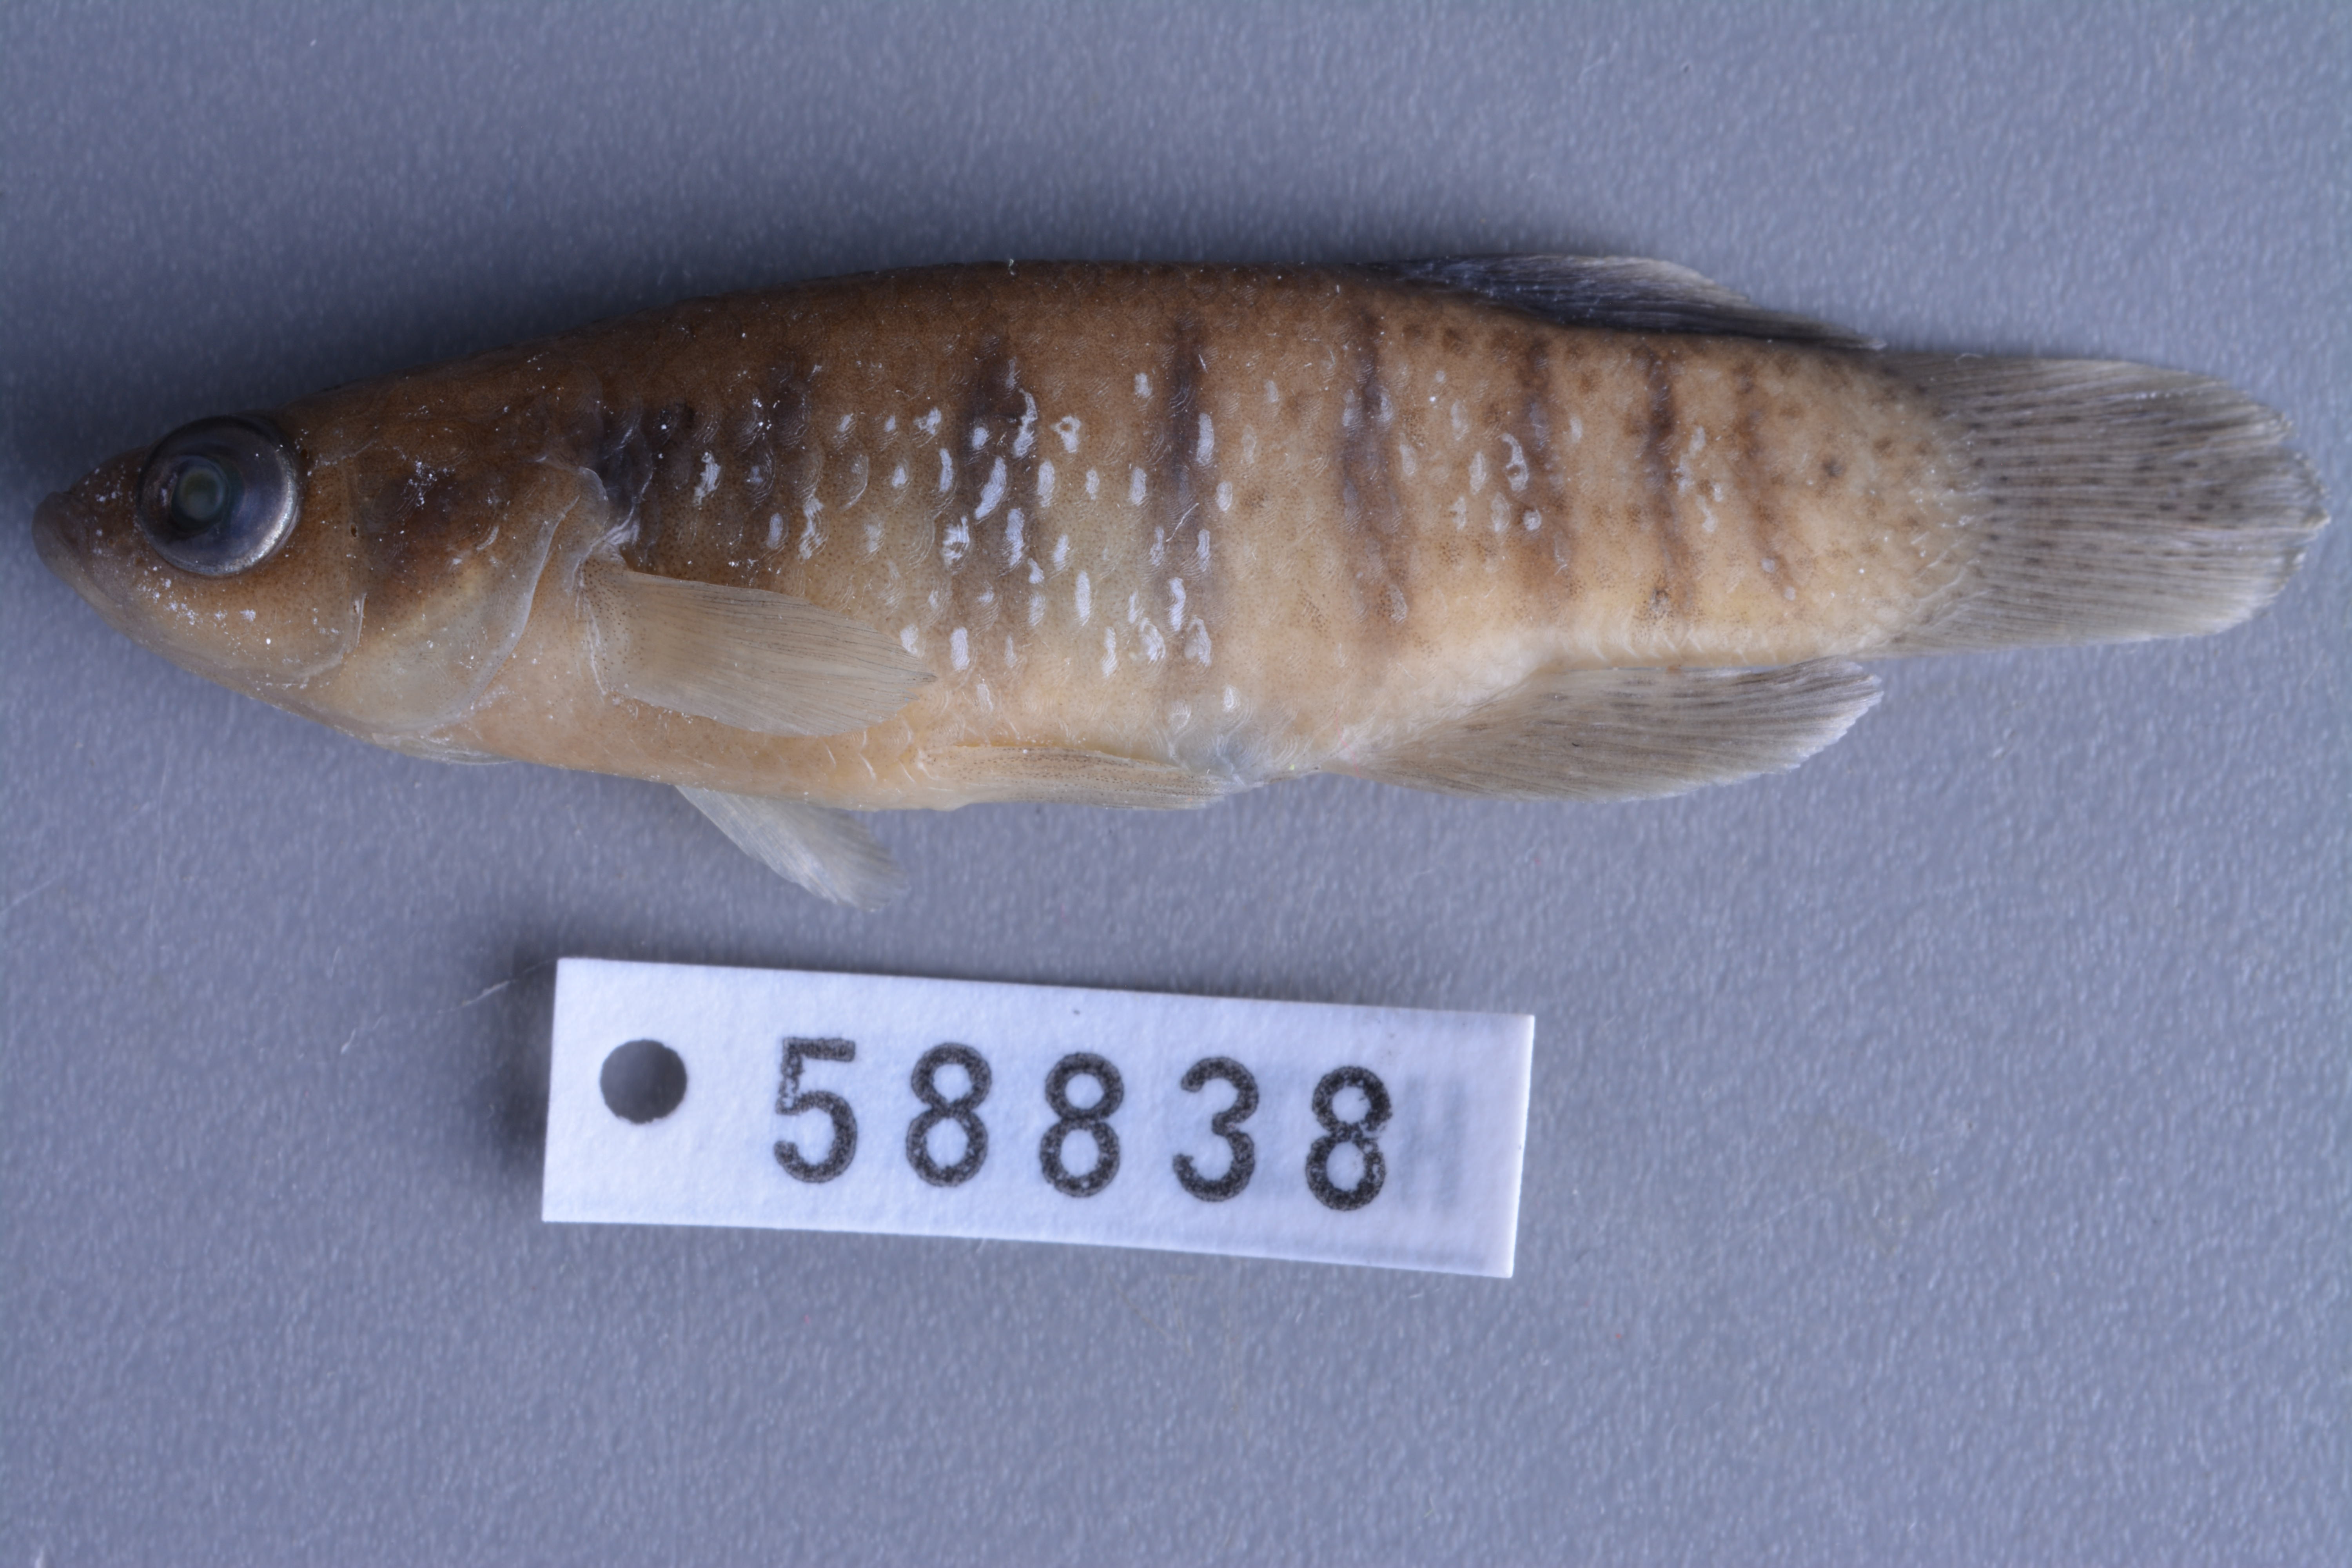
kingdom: Animalia
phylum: Chordata
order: Cyprinodontiformes
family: Fundulidae
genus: Fundulus
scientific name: Fundulus chrysotus
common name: Golden topminnow
